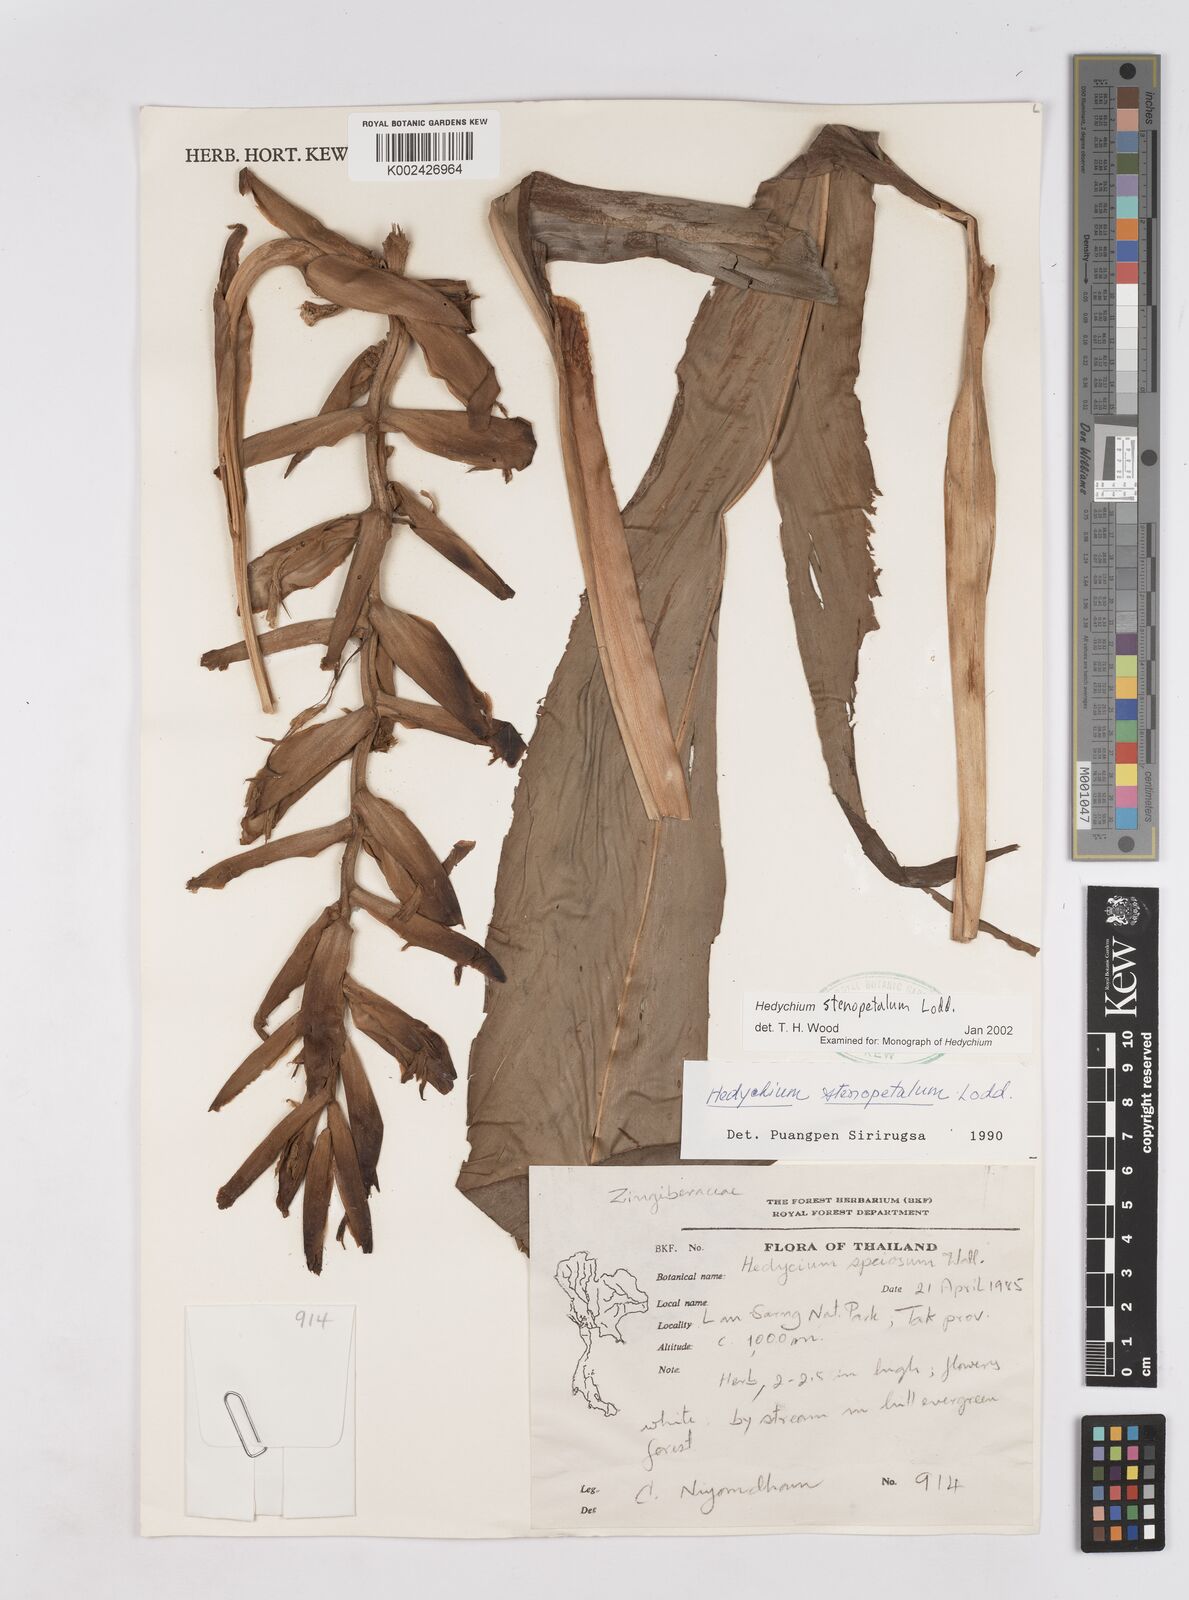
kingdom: Plantae
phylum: Tracheophyta
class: Liliopsida
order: Zingiberales
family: Zingiberaceae
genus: Hedychium
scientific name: Hedychium stenopetalum
